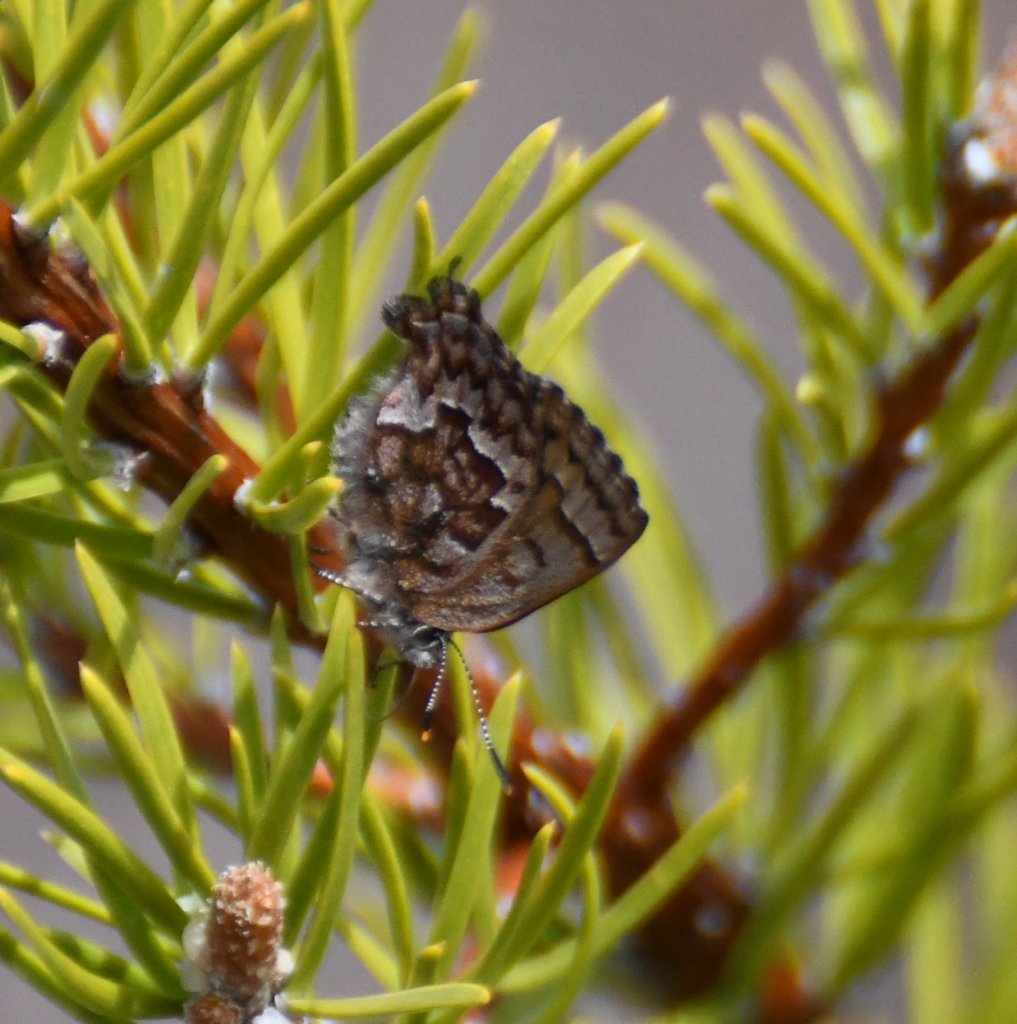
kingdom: Animalia
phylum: Arthropoda
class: Insecta
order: Lepidoptera
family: Lycaenidae
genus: Incisalia
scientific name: Incisalia niphon
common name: Eastern Pine Elfin
